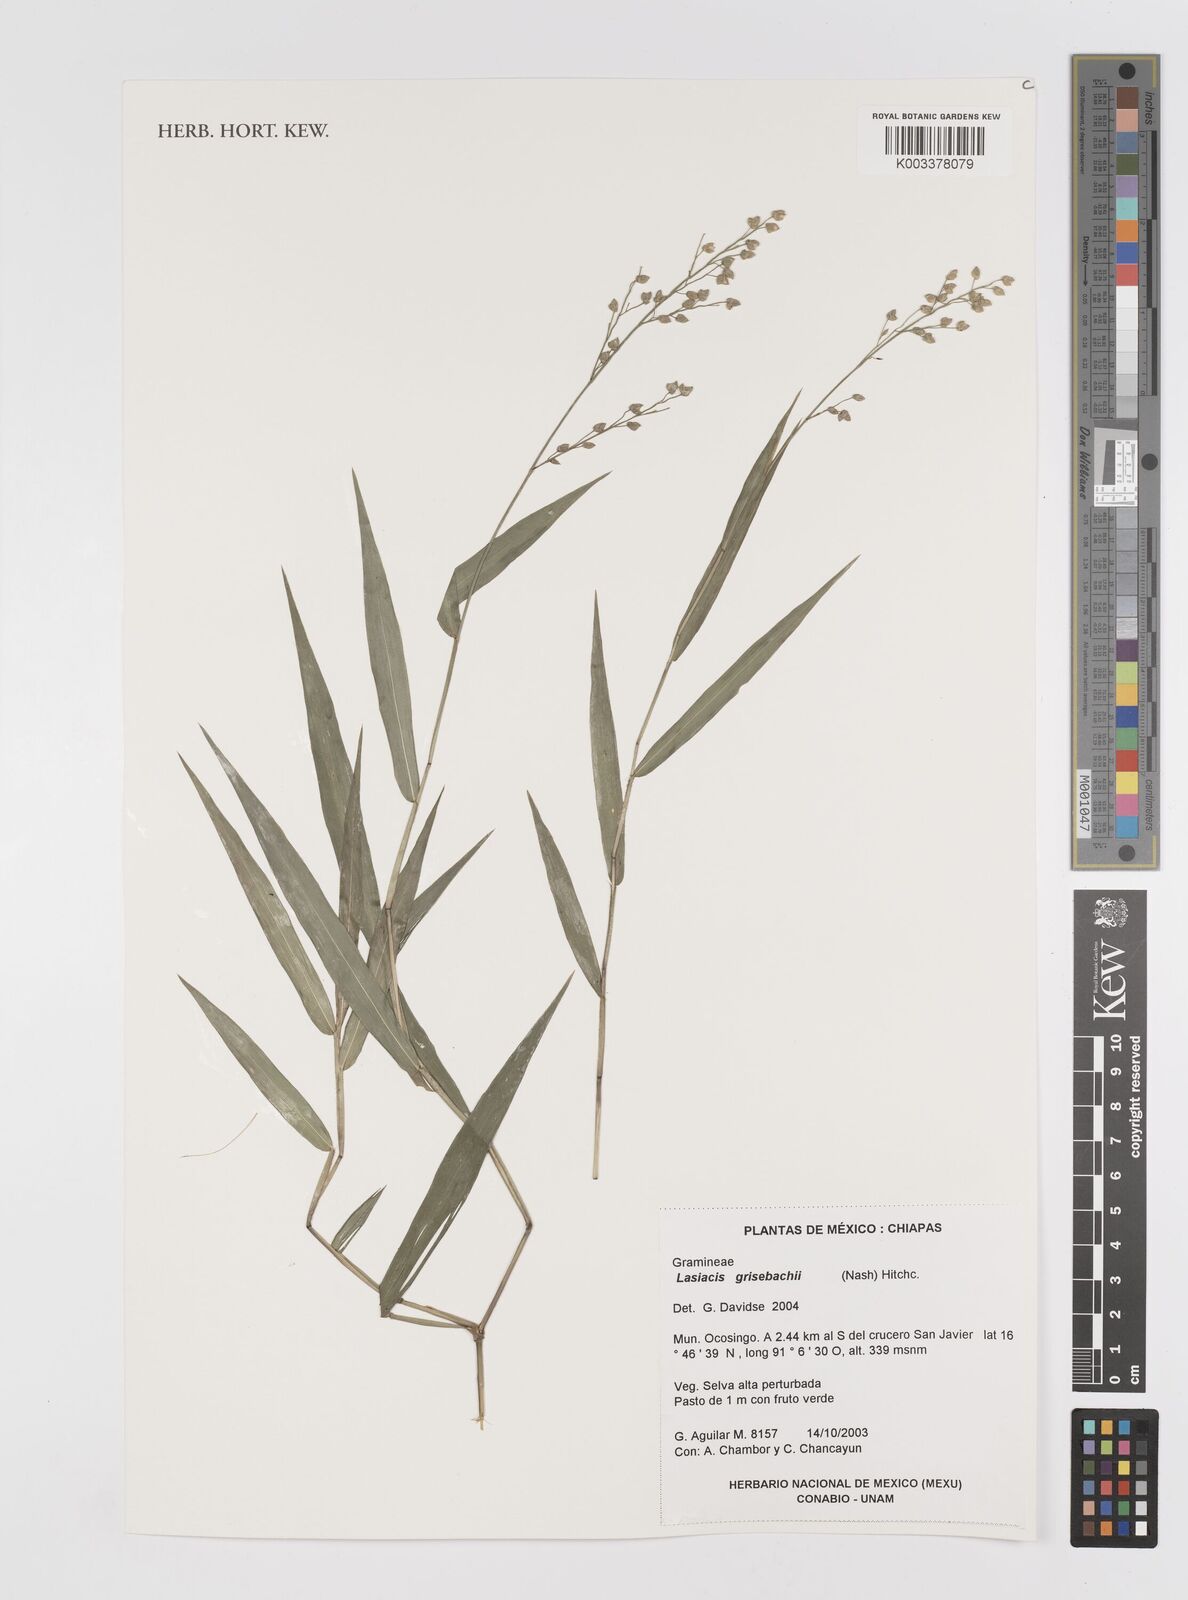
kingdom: Plantae
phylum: Tracheophyta
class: Liliopsida
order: Poales
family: Poaceae
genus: Lasiacis
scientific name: Lasiacis grisebachii
